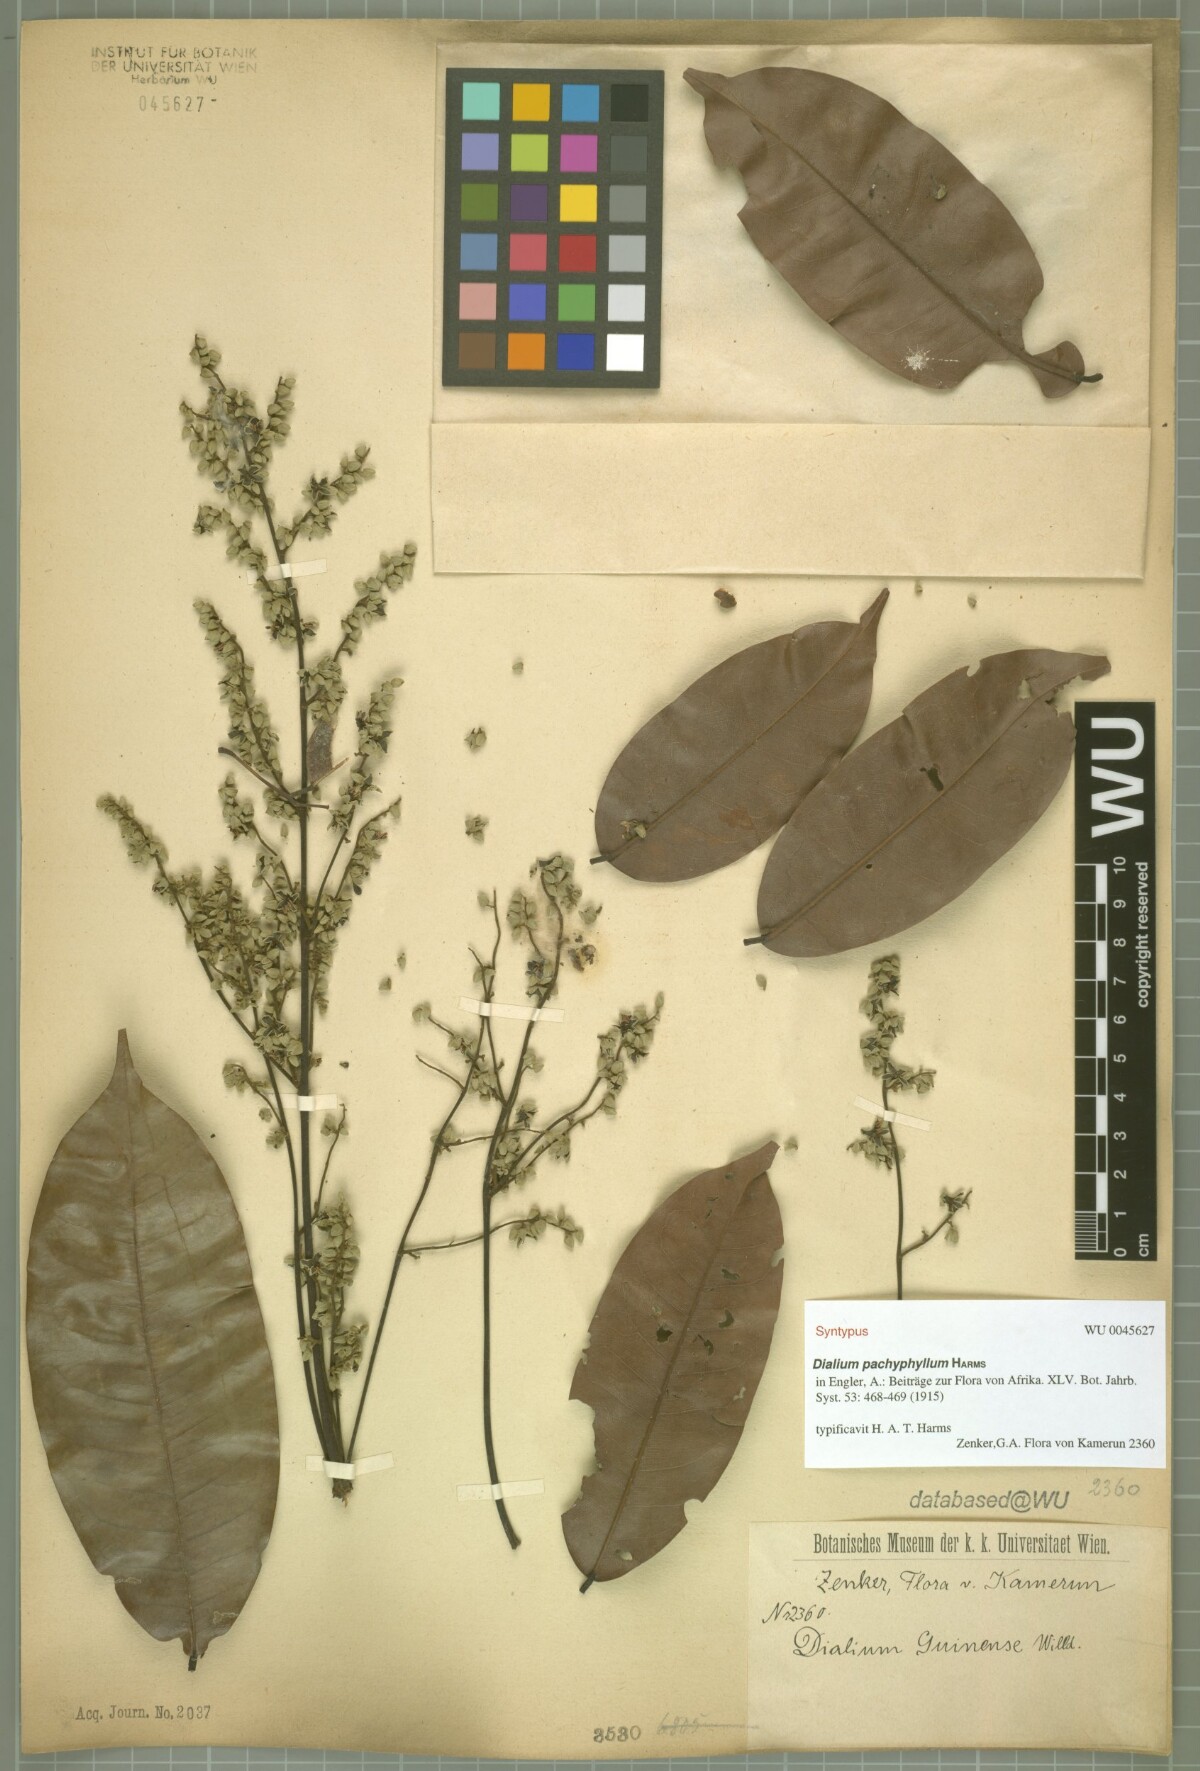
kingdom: Plantae
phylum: Tracheophyta
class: Magnoliopsida
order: Fabales
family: Fabaceae
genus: Dialium
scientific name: Dialium pachyphyllum
